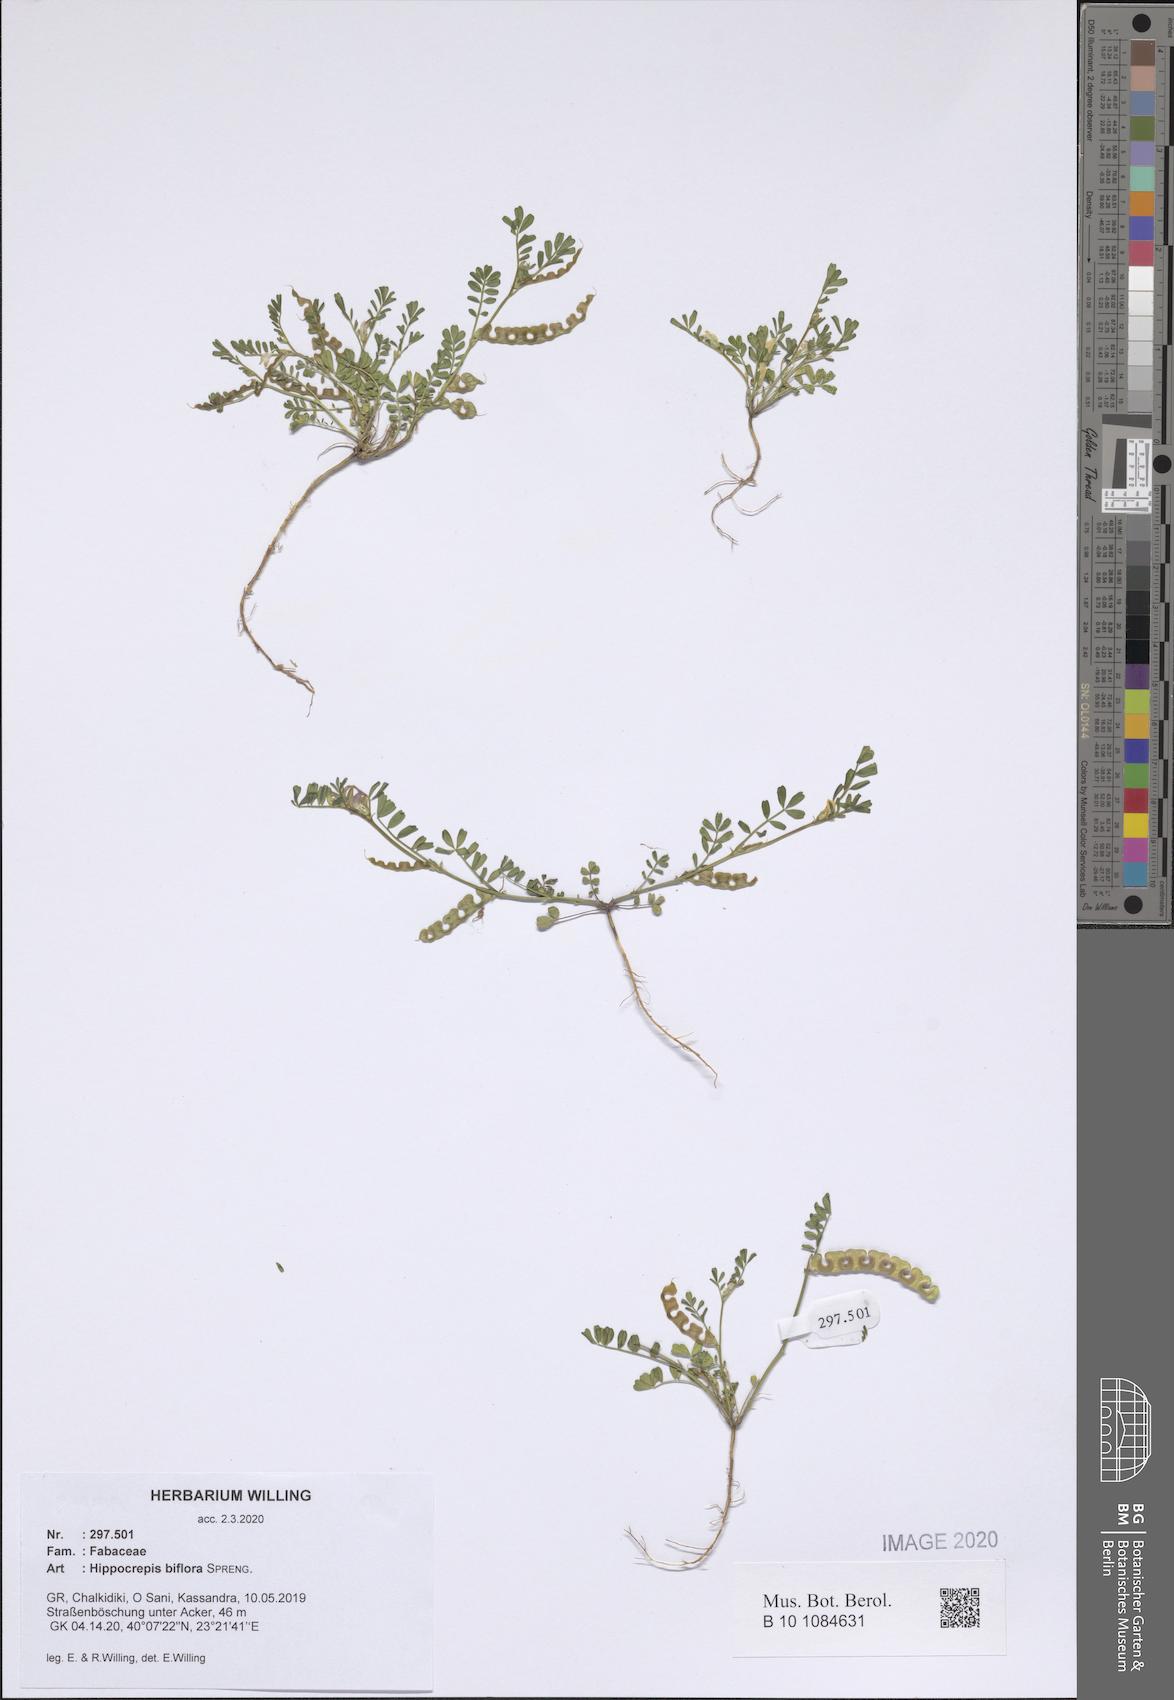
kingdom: Plantae
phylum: Tracheophyta
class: Magnoliopsida
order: Fabales
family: Fabaceae
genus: Hippocrepis
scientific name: Hippocrepis biflora
